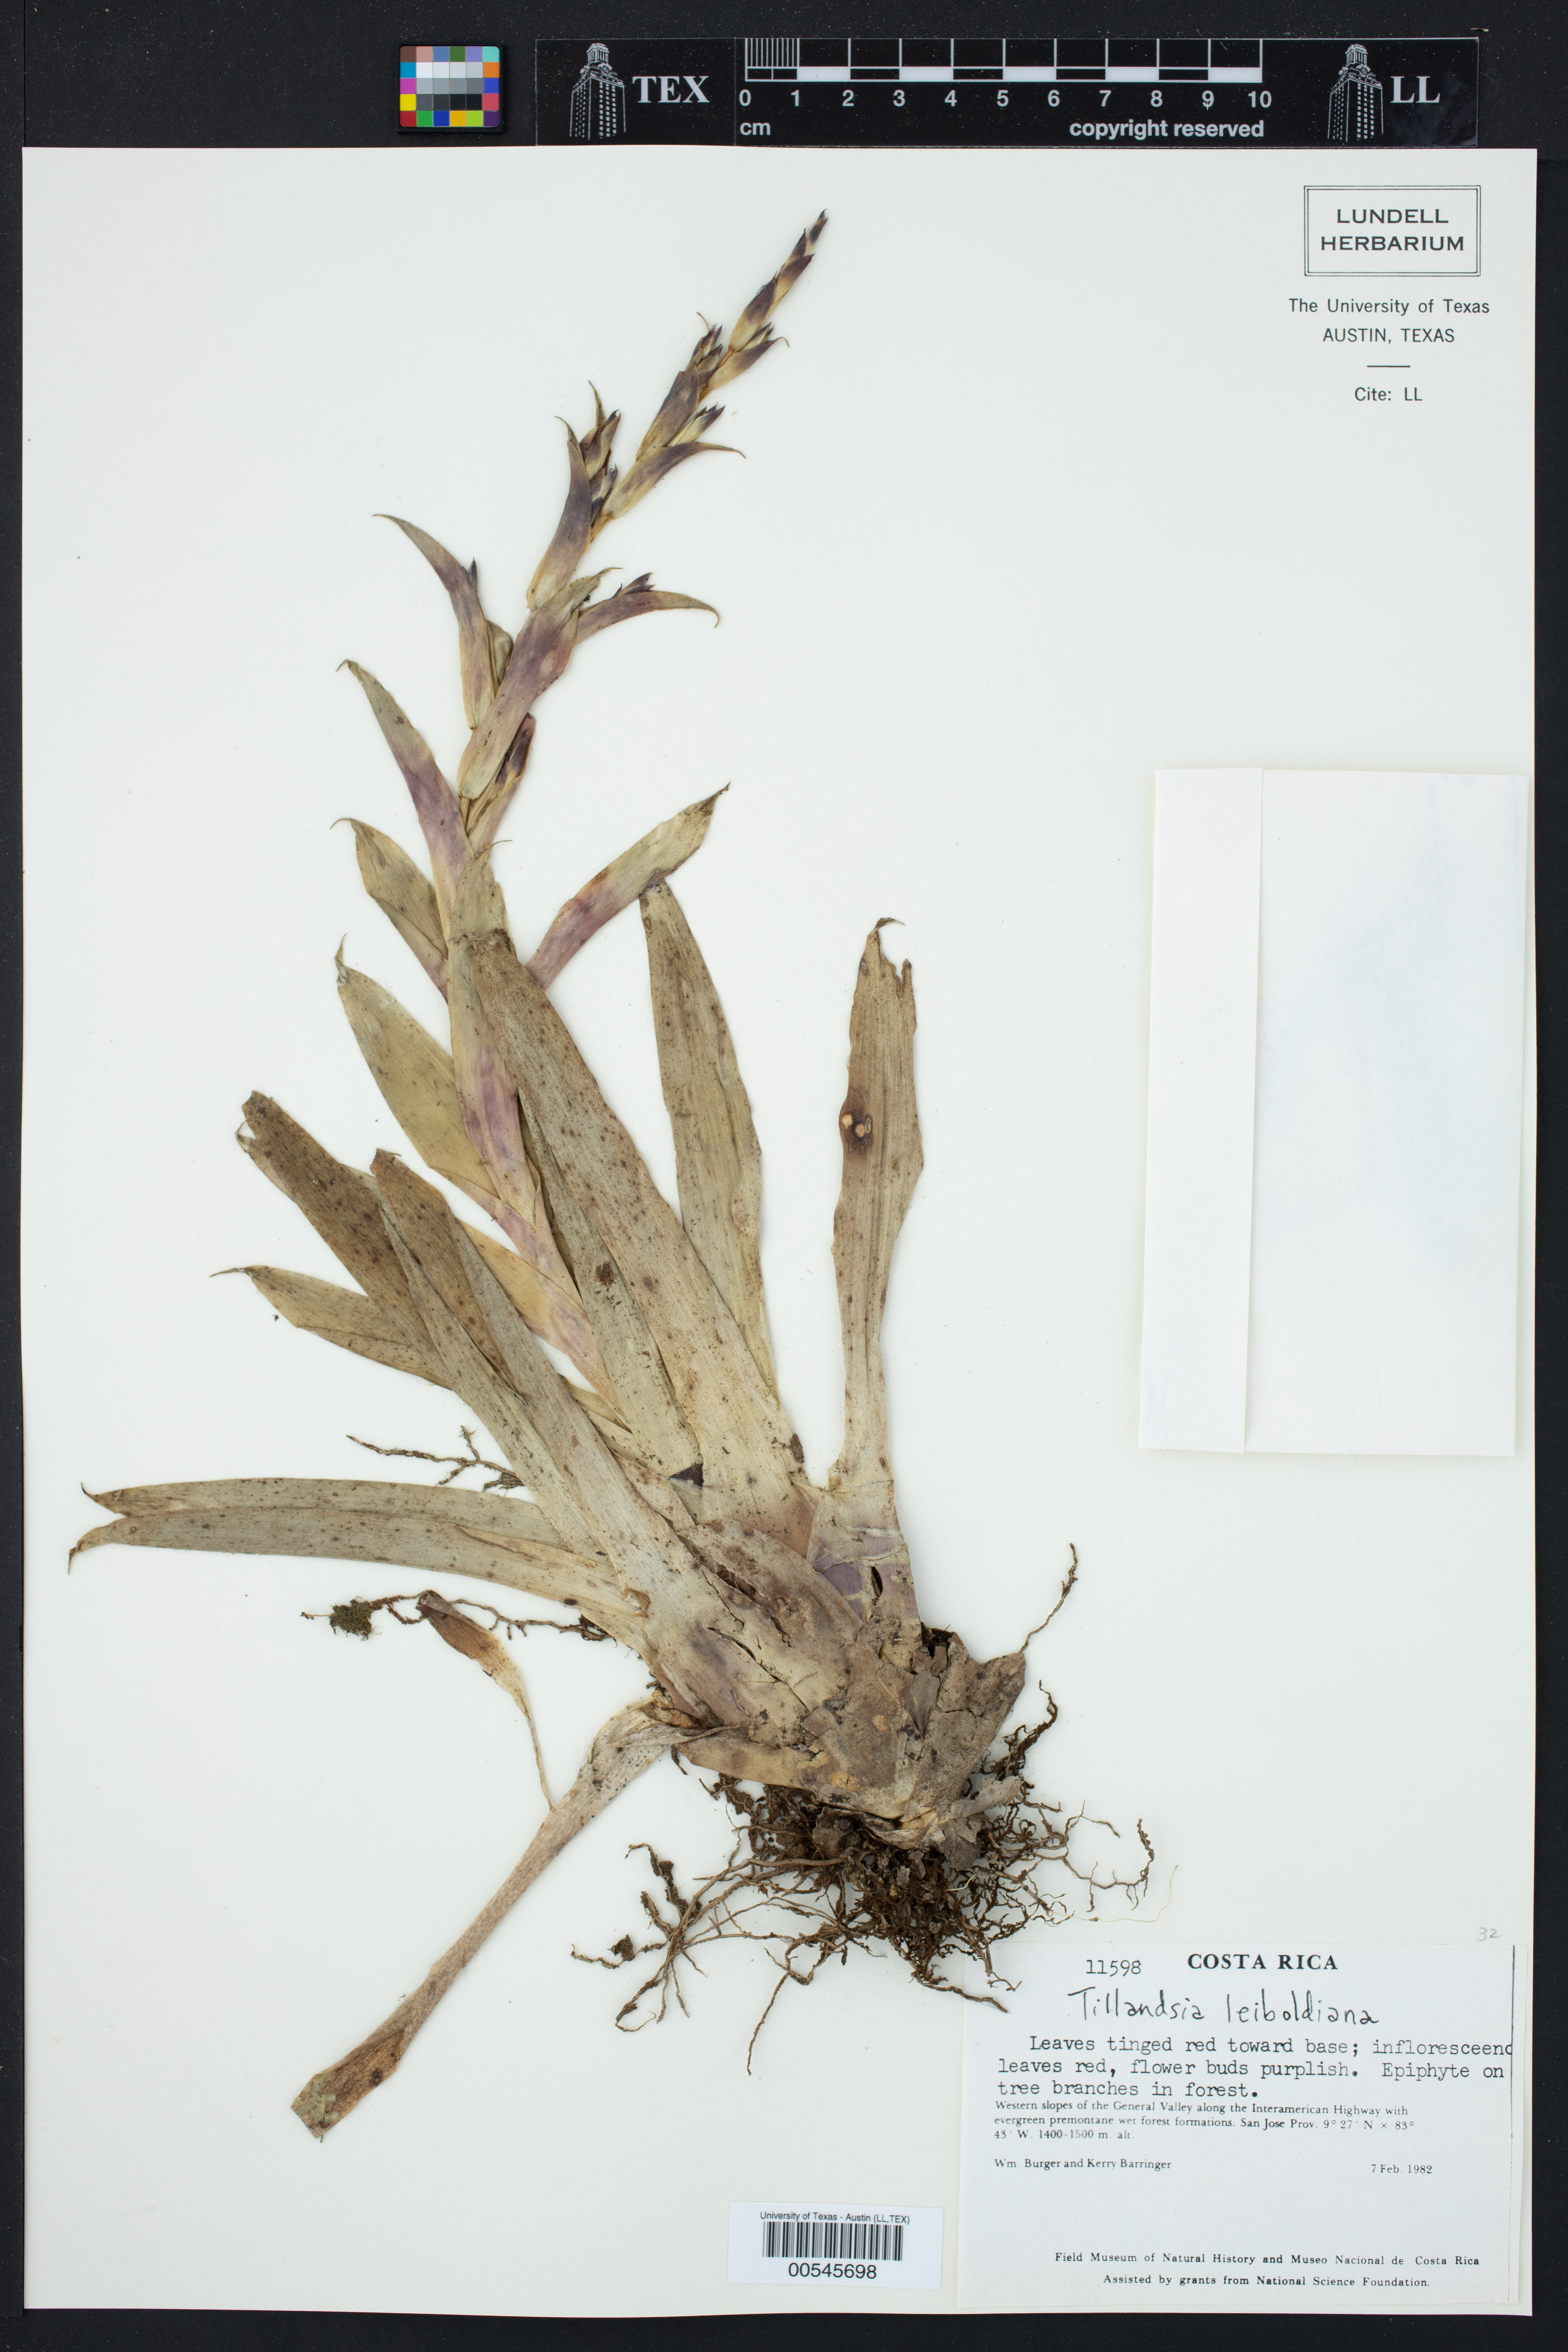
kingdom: Plantae
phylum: Tracheophyta
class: Liliopsida
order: Poales
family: Bromeliaceae
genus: Tillandsia
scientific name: Tillandsia leiboldiana
